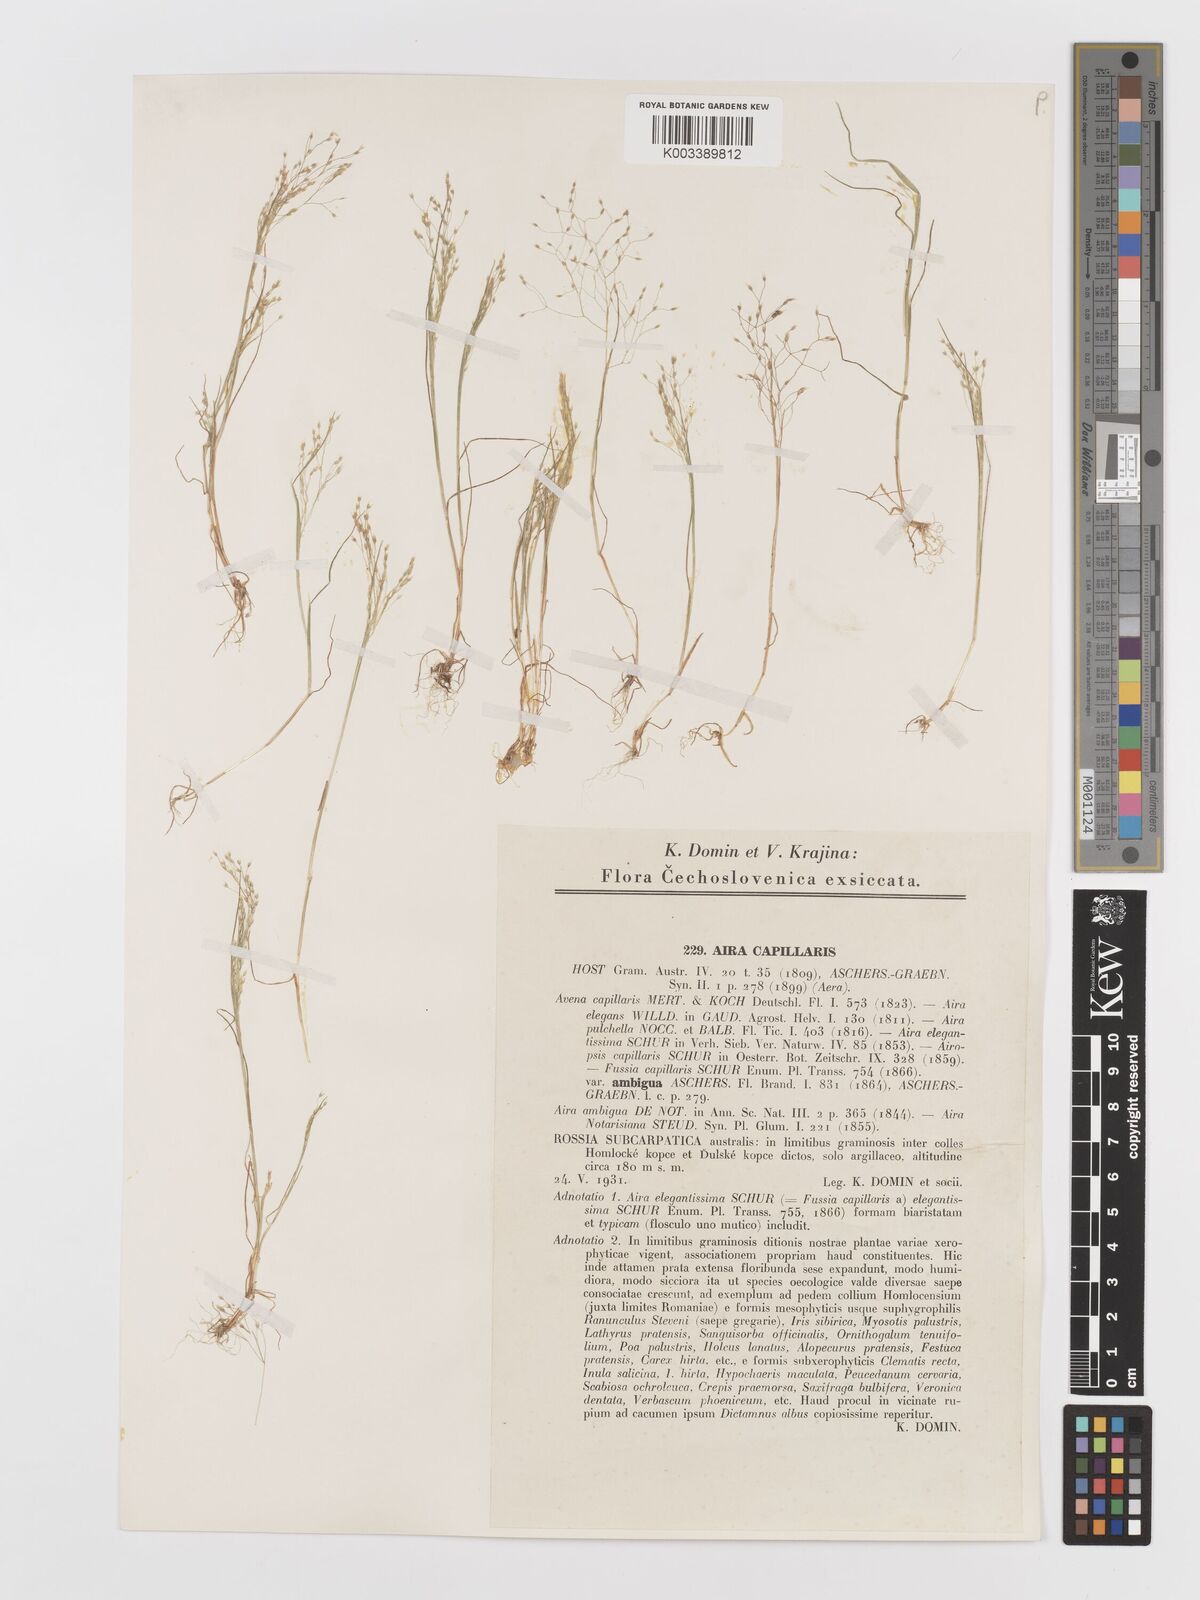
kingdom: Plantae
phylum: Tracheophyta
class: Liliopsida
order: Poales
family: Poaceae
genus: Aira
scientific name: Aira elegans
